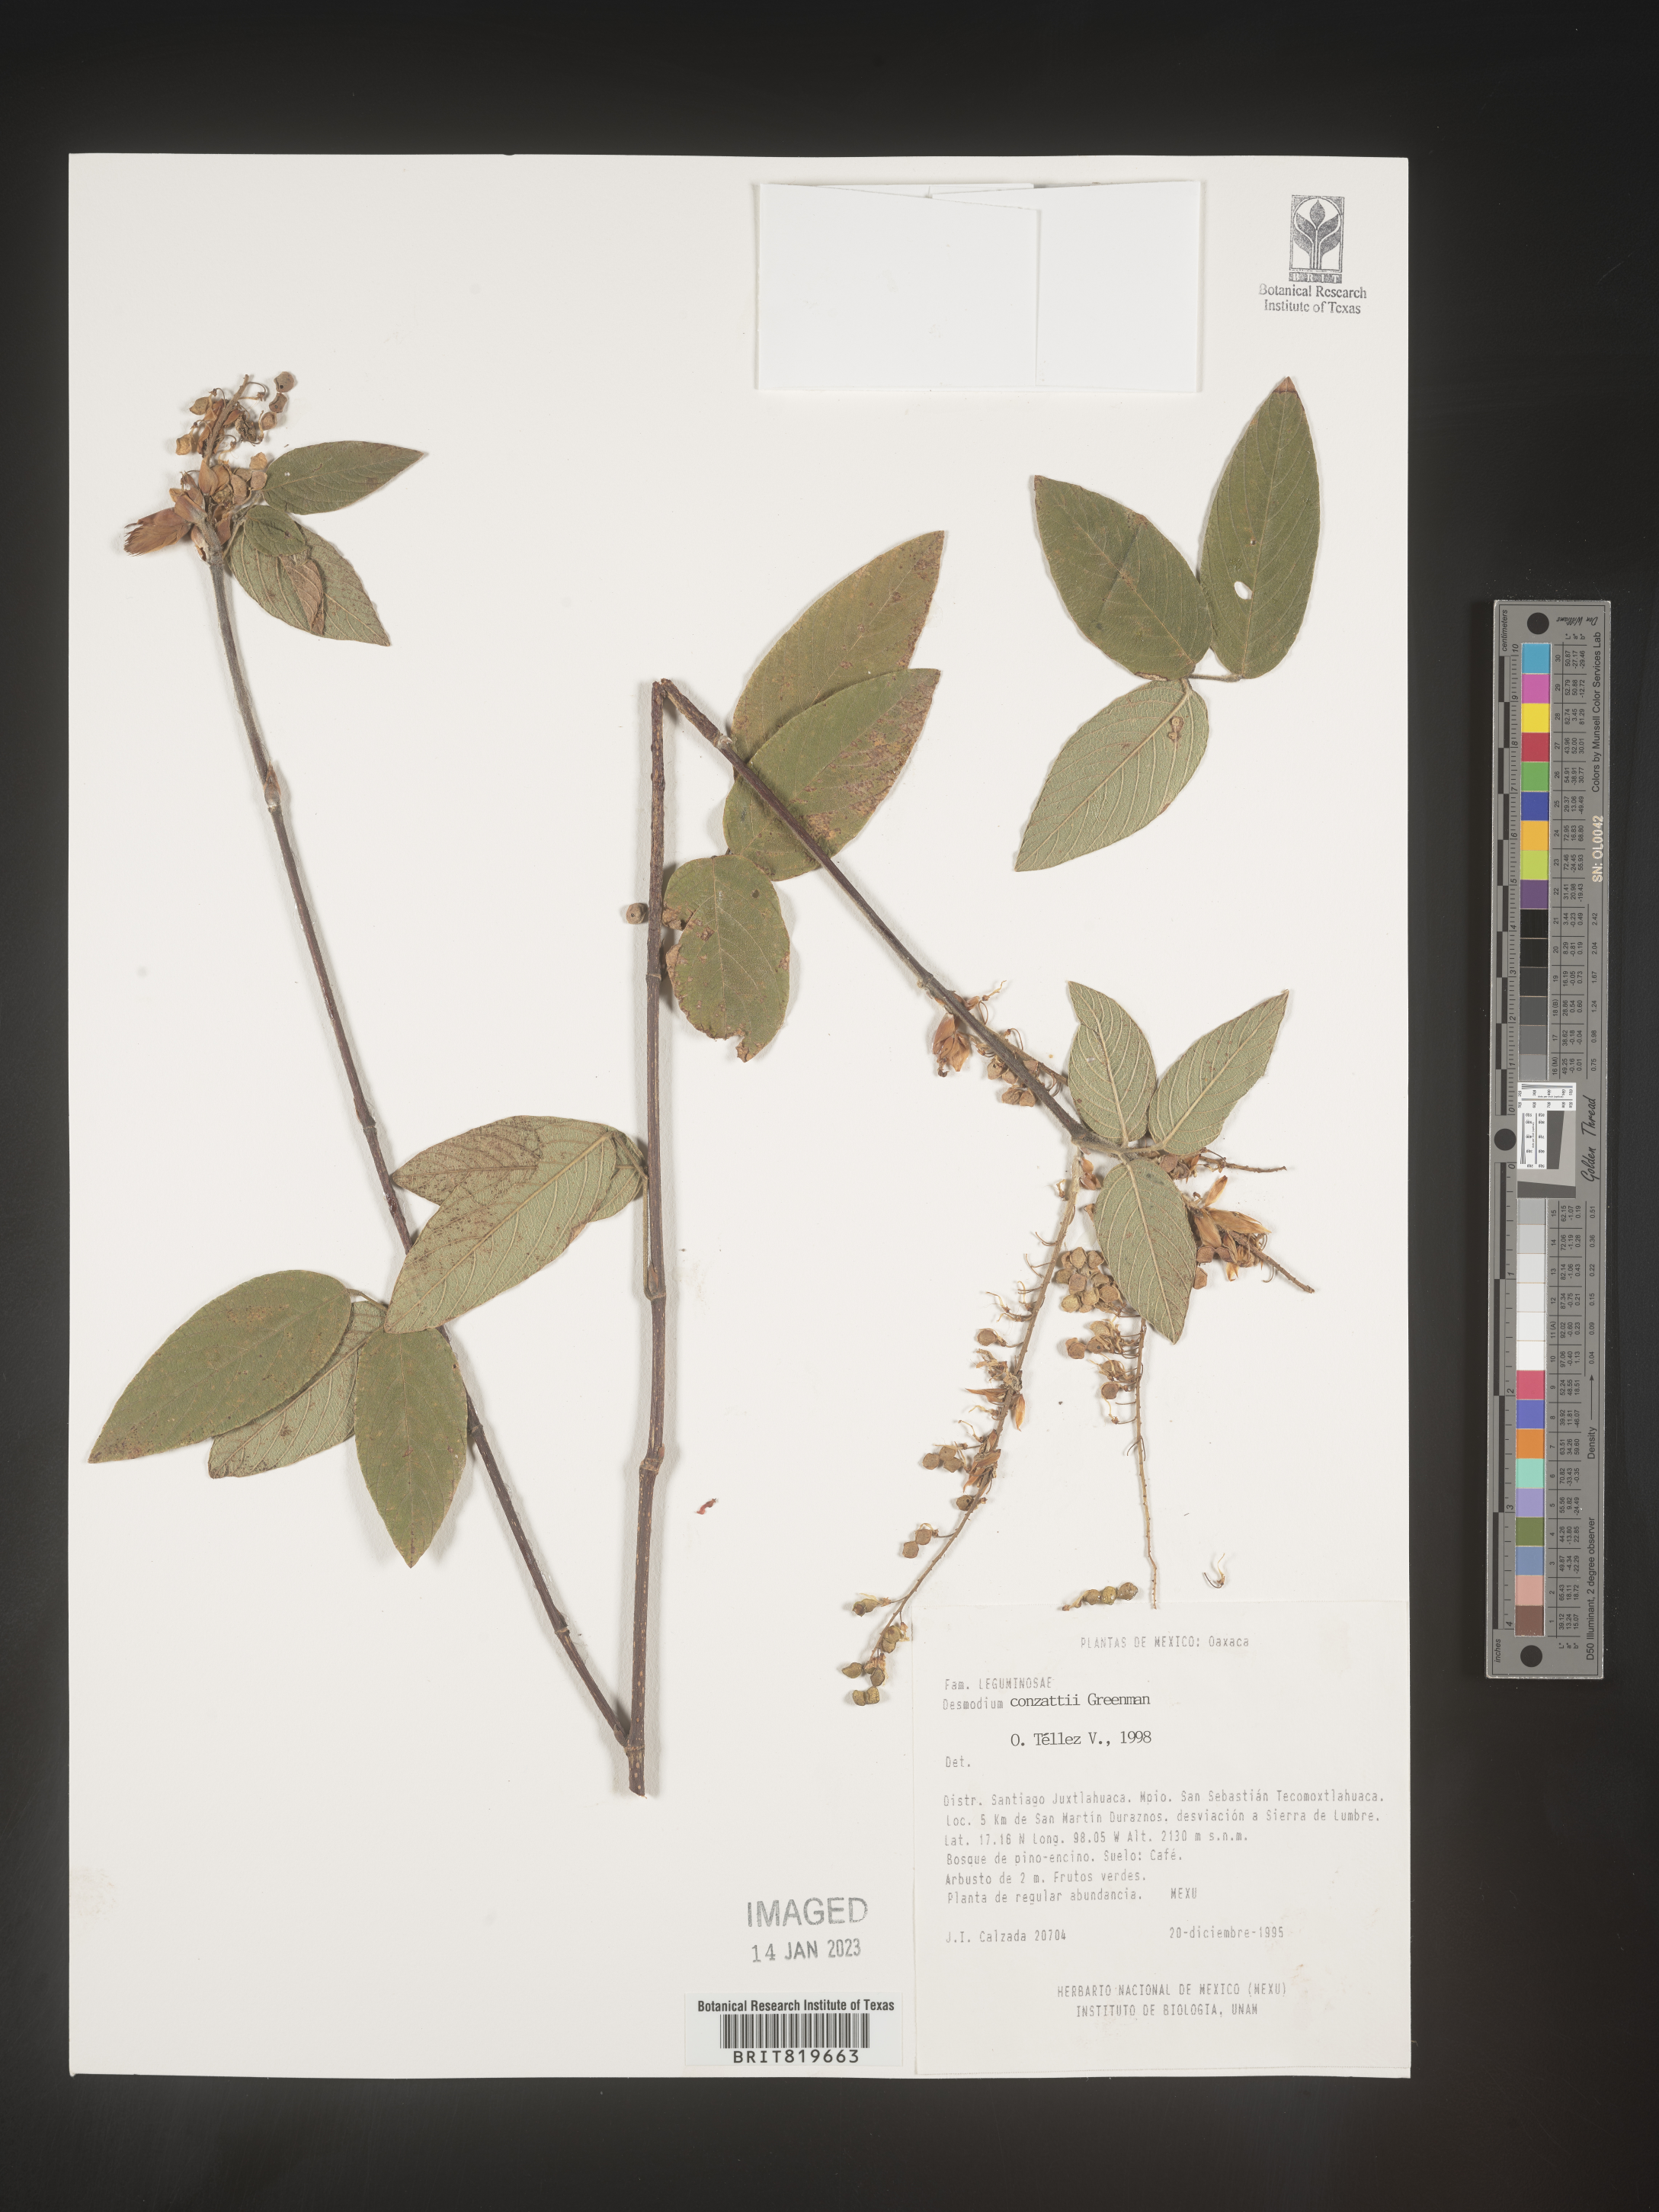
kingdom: Plantae
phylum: Tracheophyta
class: Magnoliopsida
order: Fabales
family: Fabaceae
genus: Desmodium
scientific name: Desmodium
